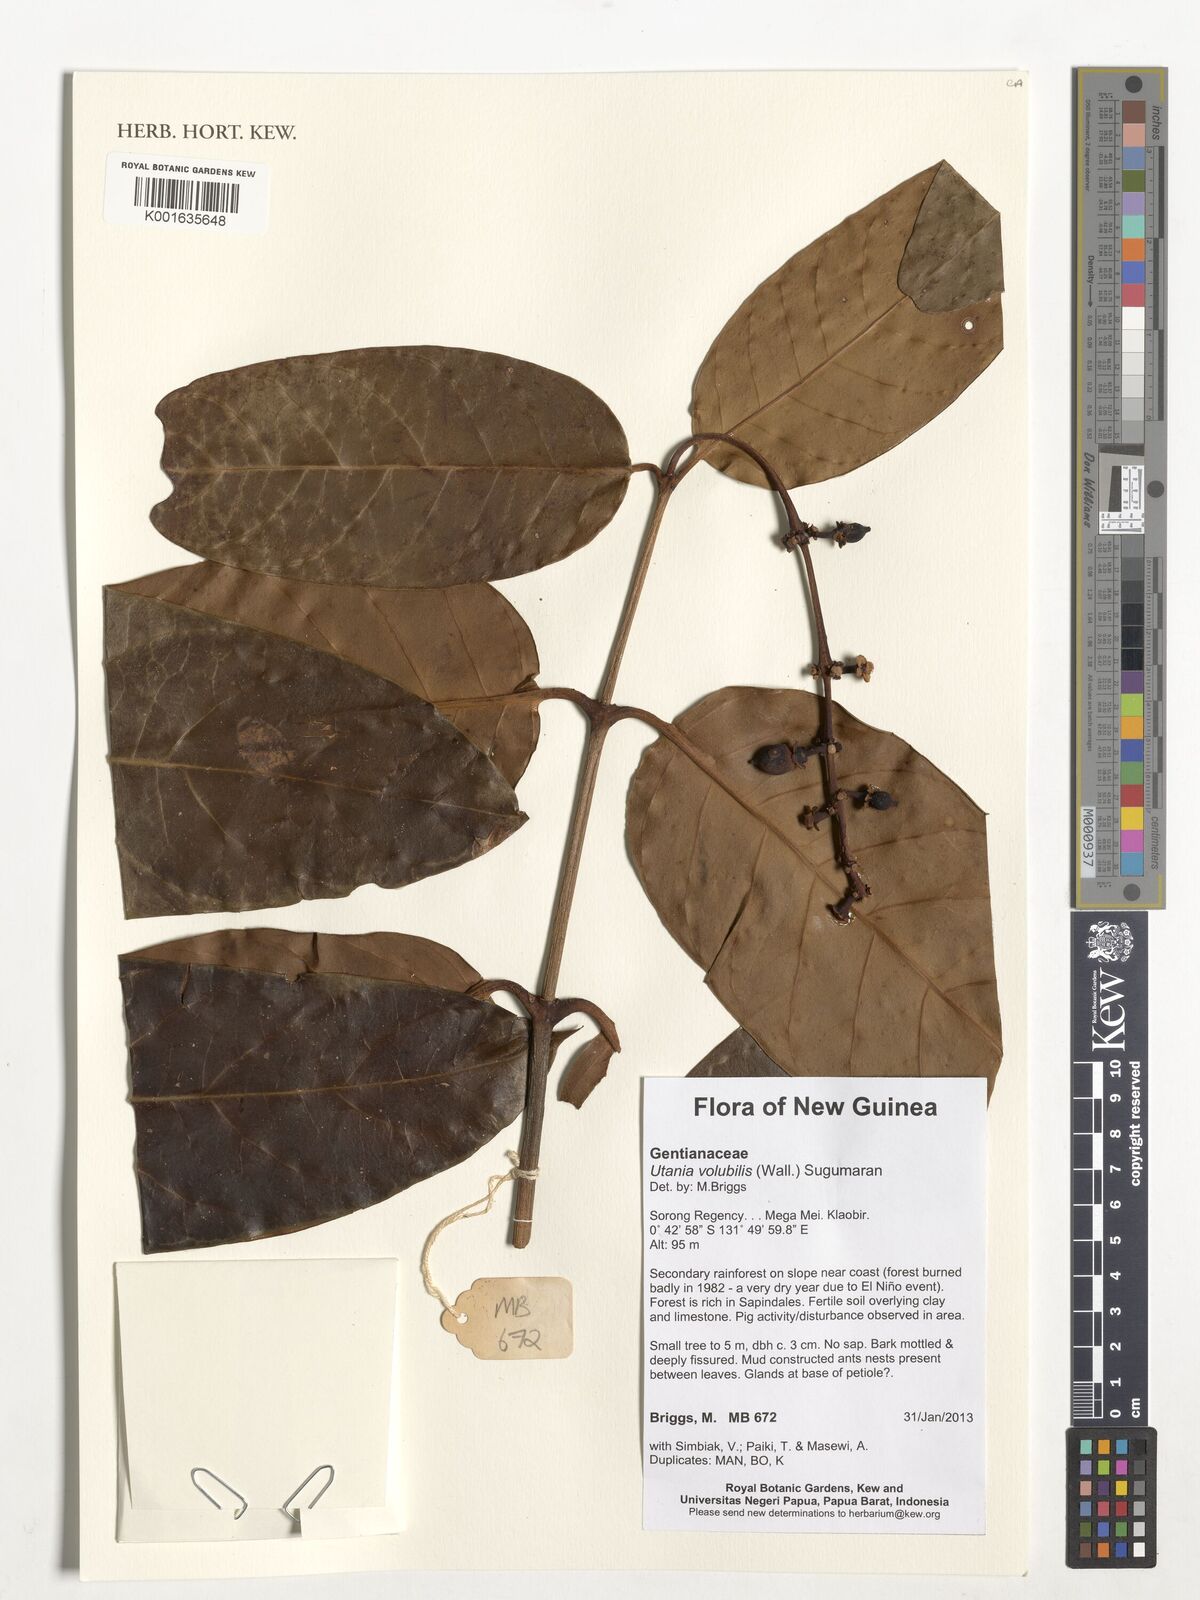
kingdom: Plantae
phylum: Tracheophyta
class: Magnoliopsida
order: Gentianales
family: Gentianaceae
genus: Utania
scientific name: Utania volubilis
